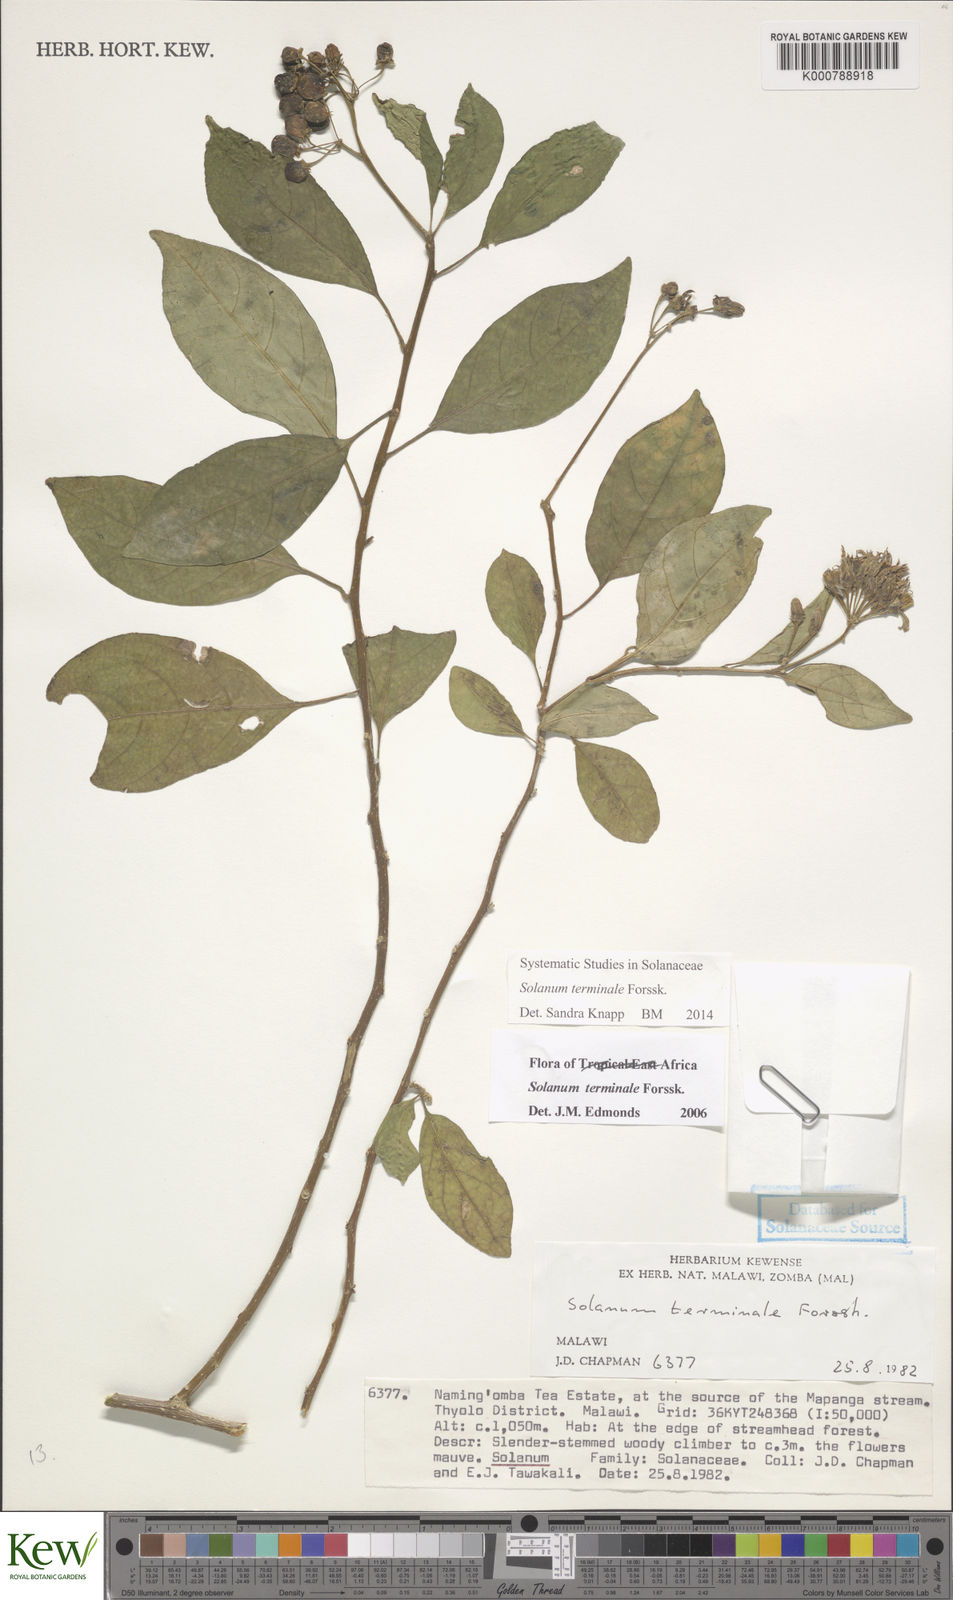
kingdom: Plantae
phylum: Tracheophyta
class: Magnoliopsida
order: Solanales
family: Solanaceae
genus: Solanum
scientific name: Solanum terminale
